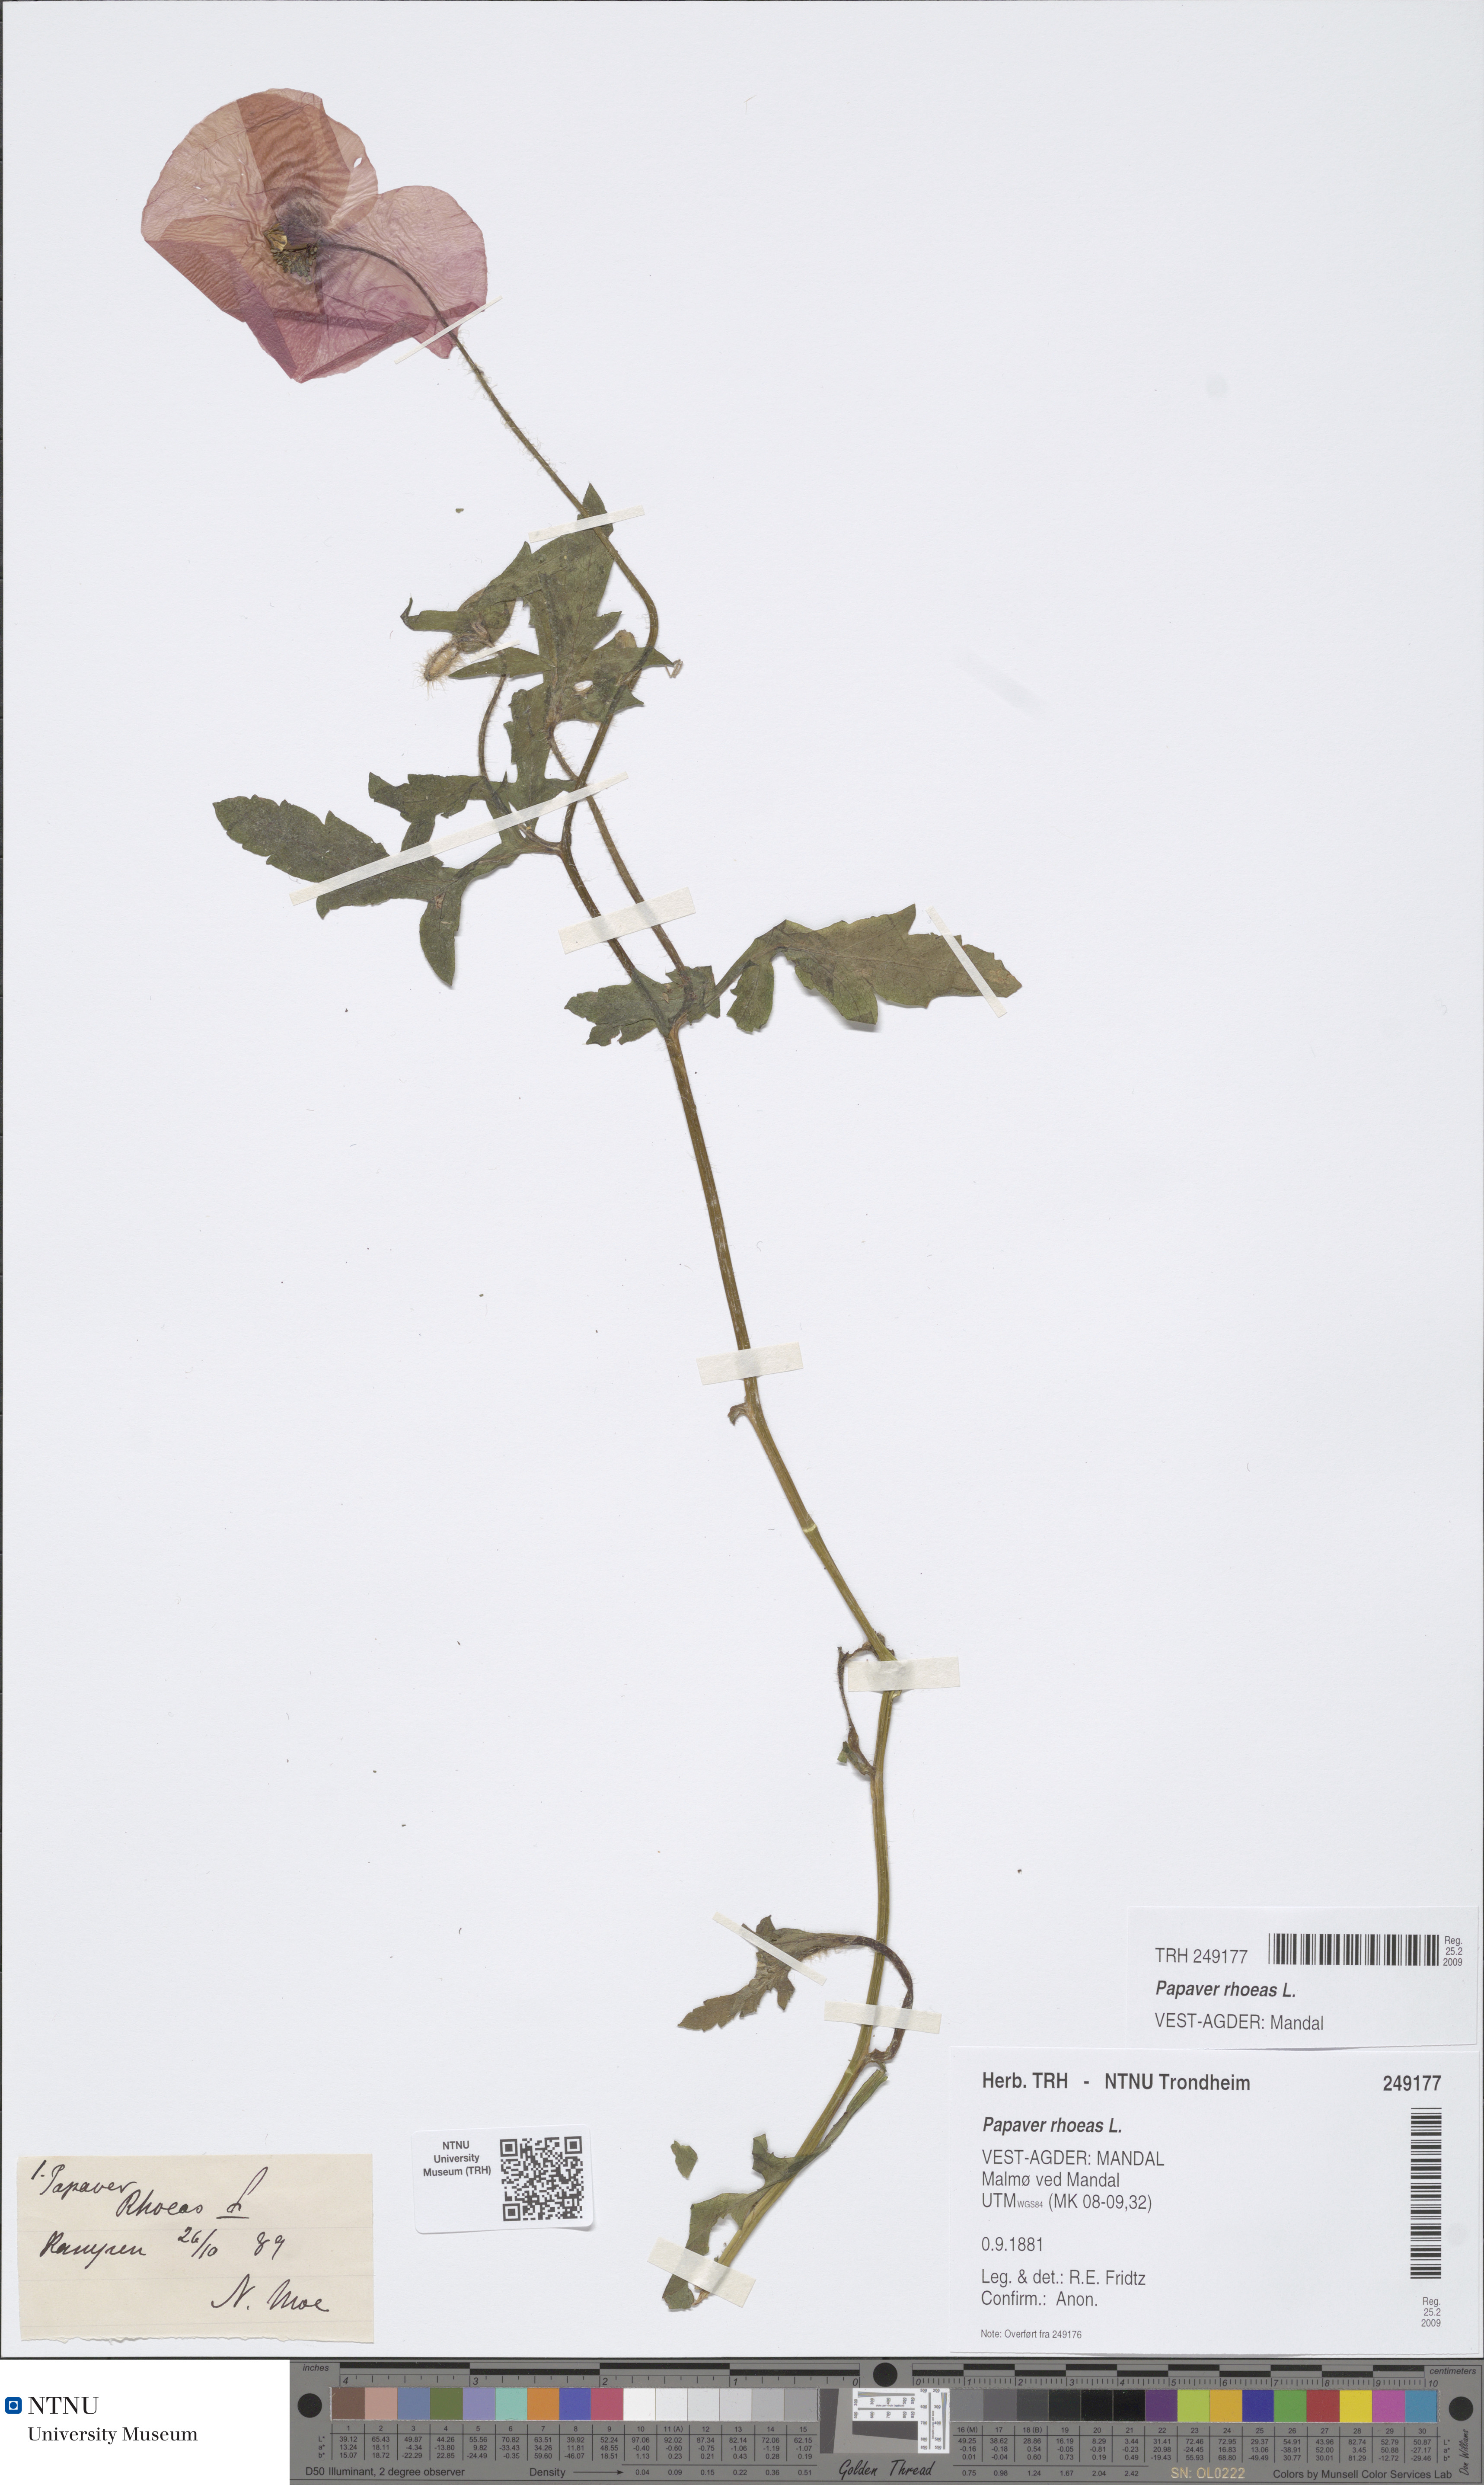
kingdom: Plantae
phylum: Tracheophyta
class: Magnoliopsida
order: Ranunculales
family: Papaveraceae
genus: Papaver
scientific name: Papaver rhoeas
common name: Corn poppy
